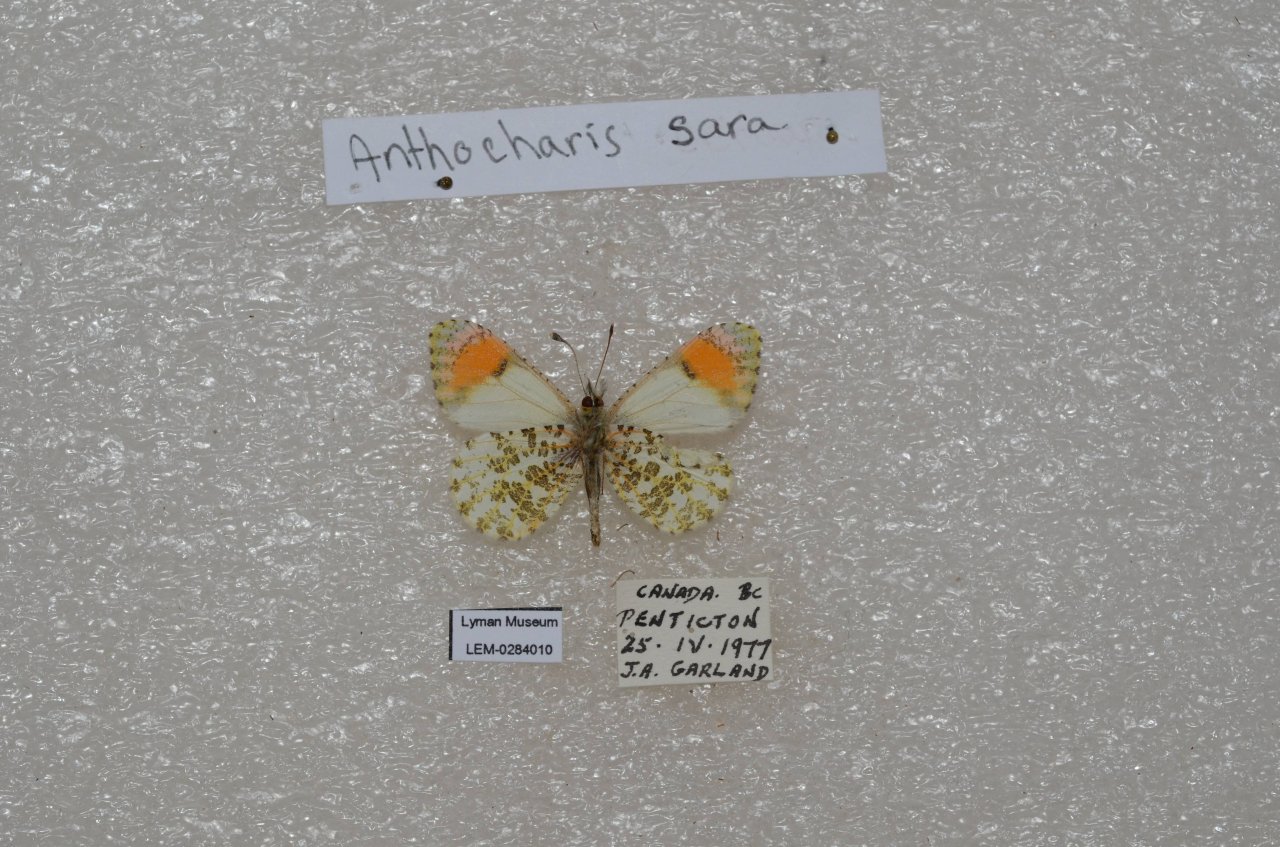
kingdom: Animalia
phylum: Arthropoda
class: Insecta
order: Lepidoptera
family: Pieridae
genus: Anthocharis
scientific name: Anthocharis sara
